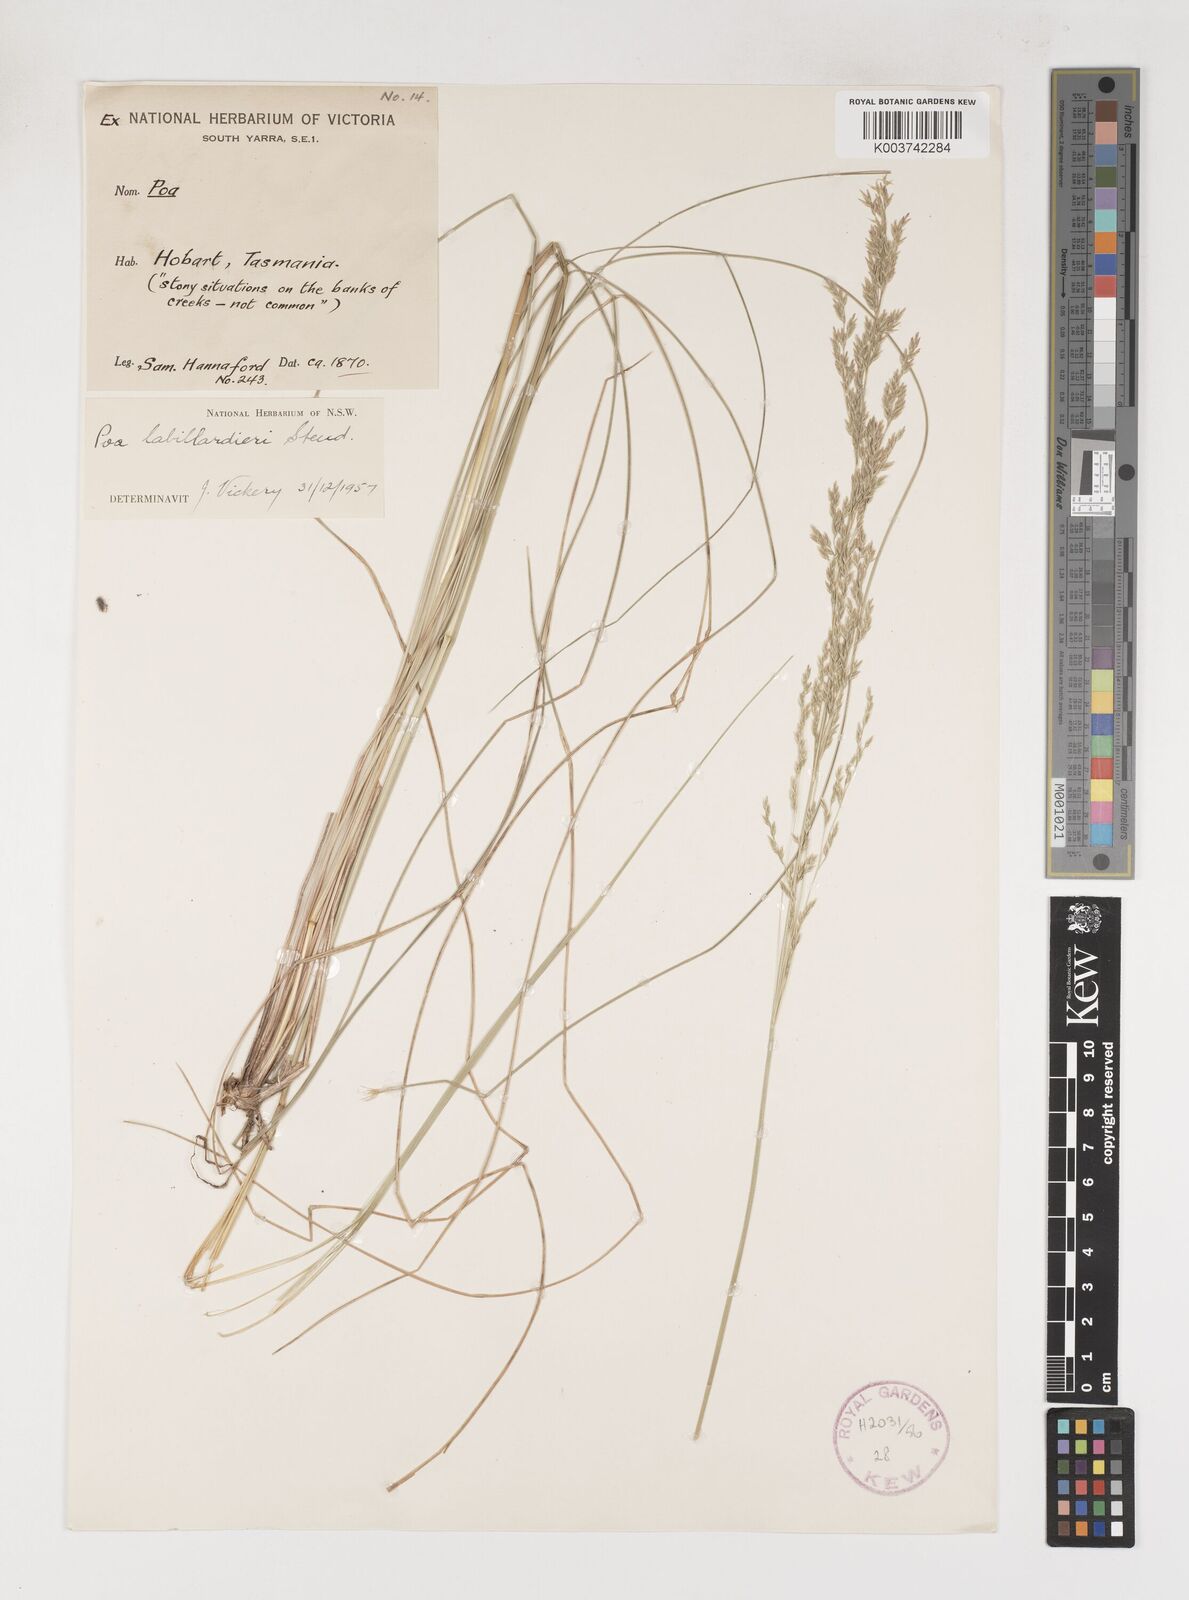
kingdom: Plantae
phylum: Tracheophyta
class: Liliopsida
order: Poales
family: Poaceae
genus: Poa
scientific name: Poa labillardierei
